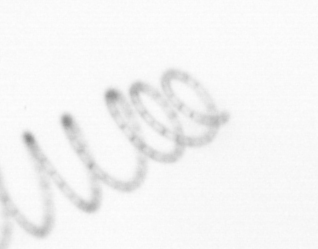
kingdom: Chromista
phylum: Ochrophyta
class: Bacillariophyceae
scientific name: Bacillariophyceae
